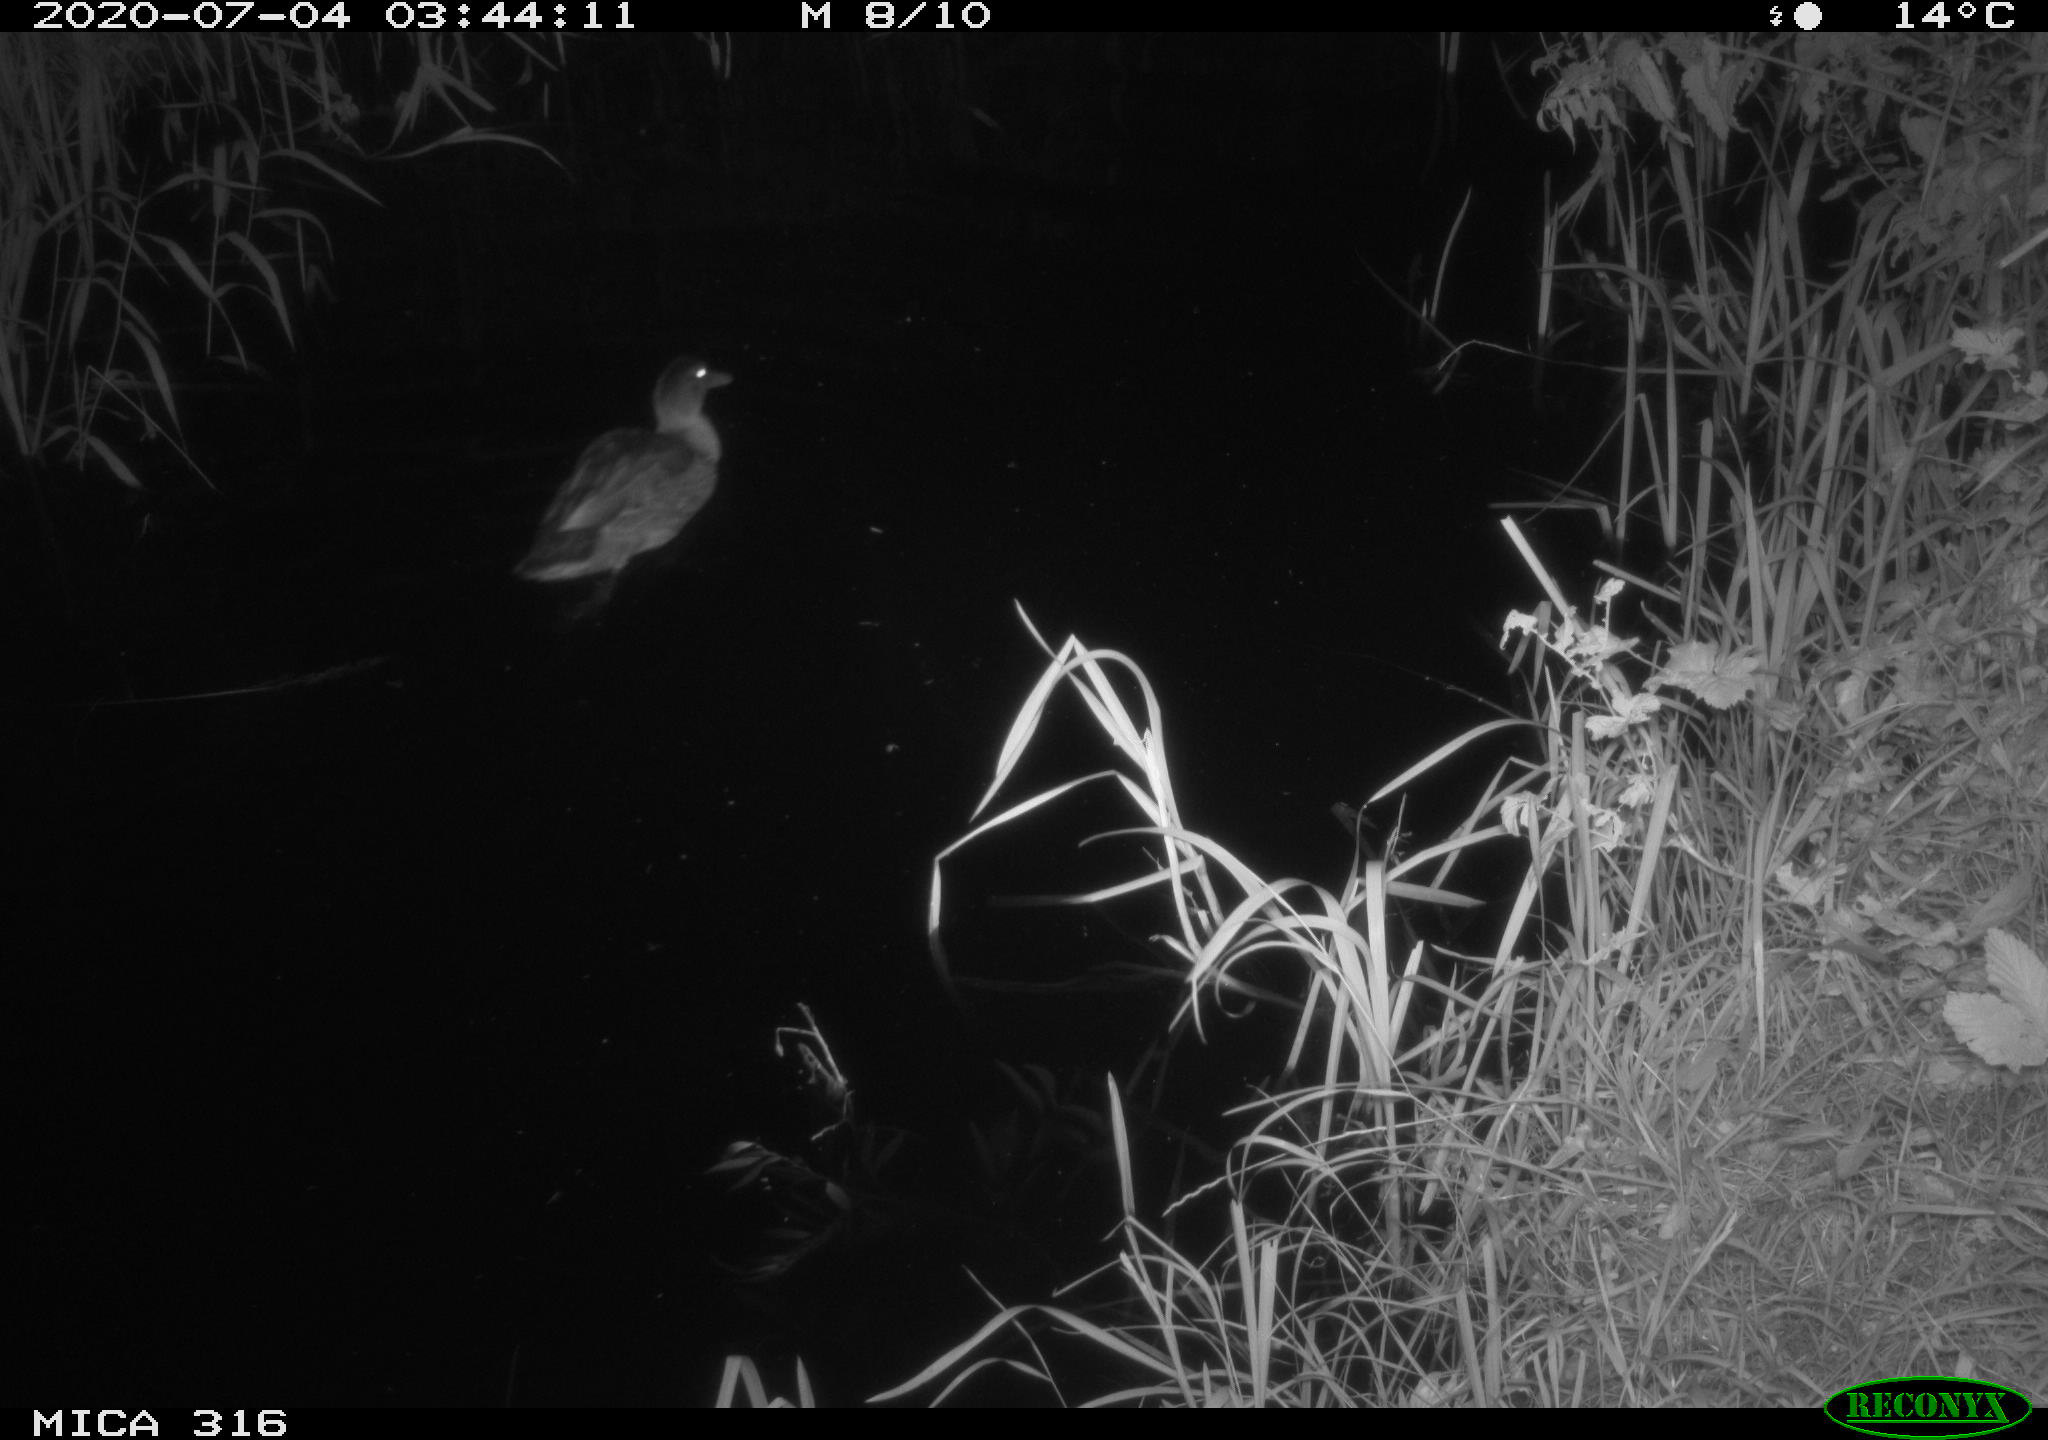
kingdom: Animalia
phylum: Chordata
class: Aves
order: Anseriformes
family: Anatidae
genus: Anas
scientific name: Anas platyrhynchos
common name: Mallard
